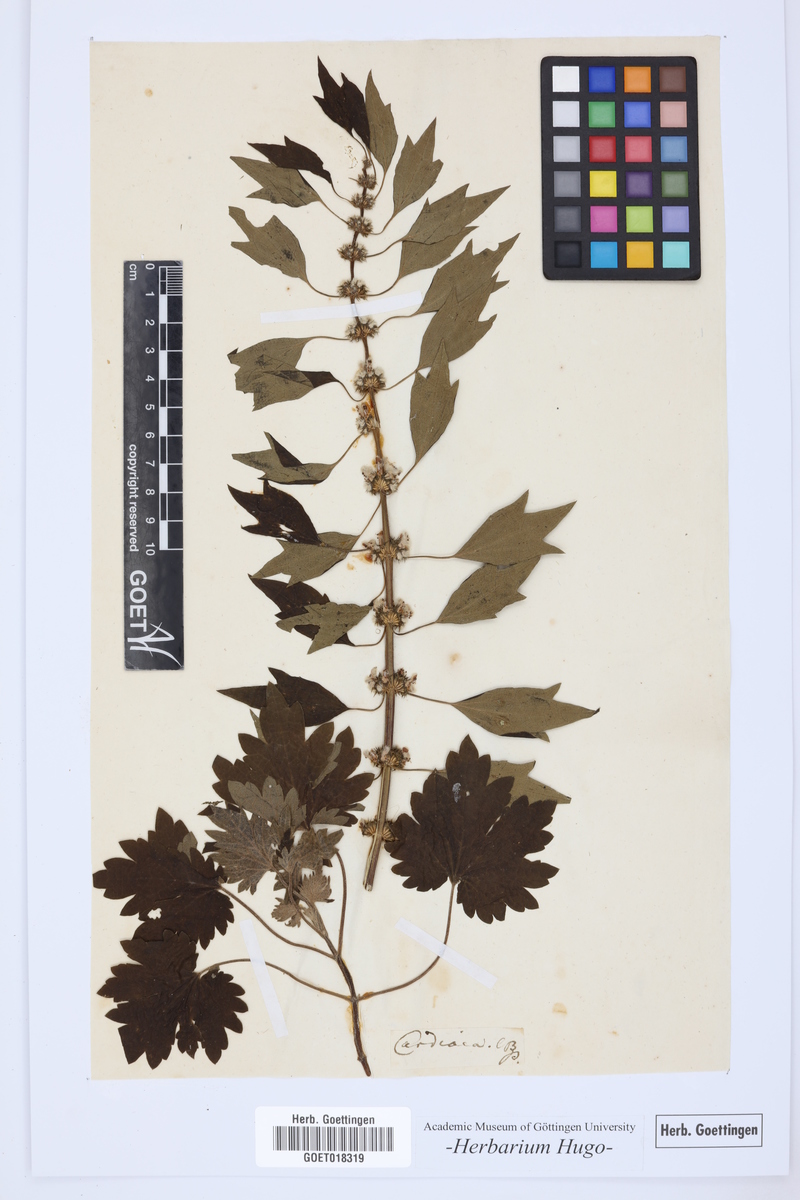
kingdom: Plantae
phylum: Tracheophyta
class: Magnoliopsida
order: Lamiales
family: Lamiaceae
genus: Leonurus
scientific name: Leonurus cardiaca
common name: Motherwort
